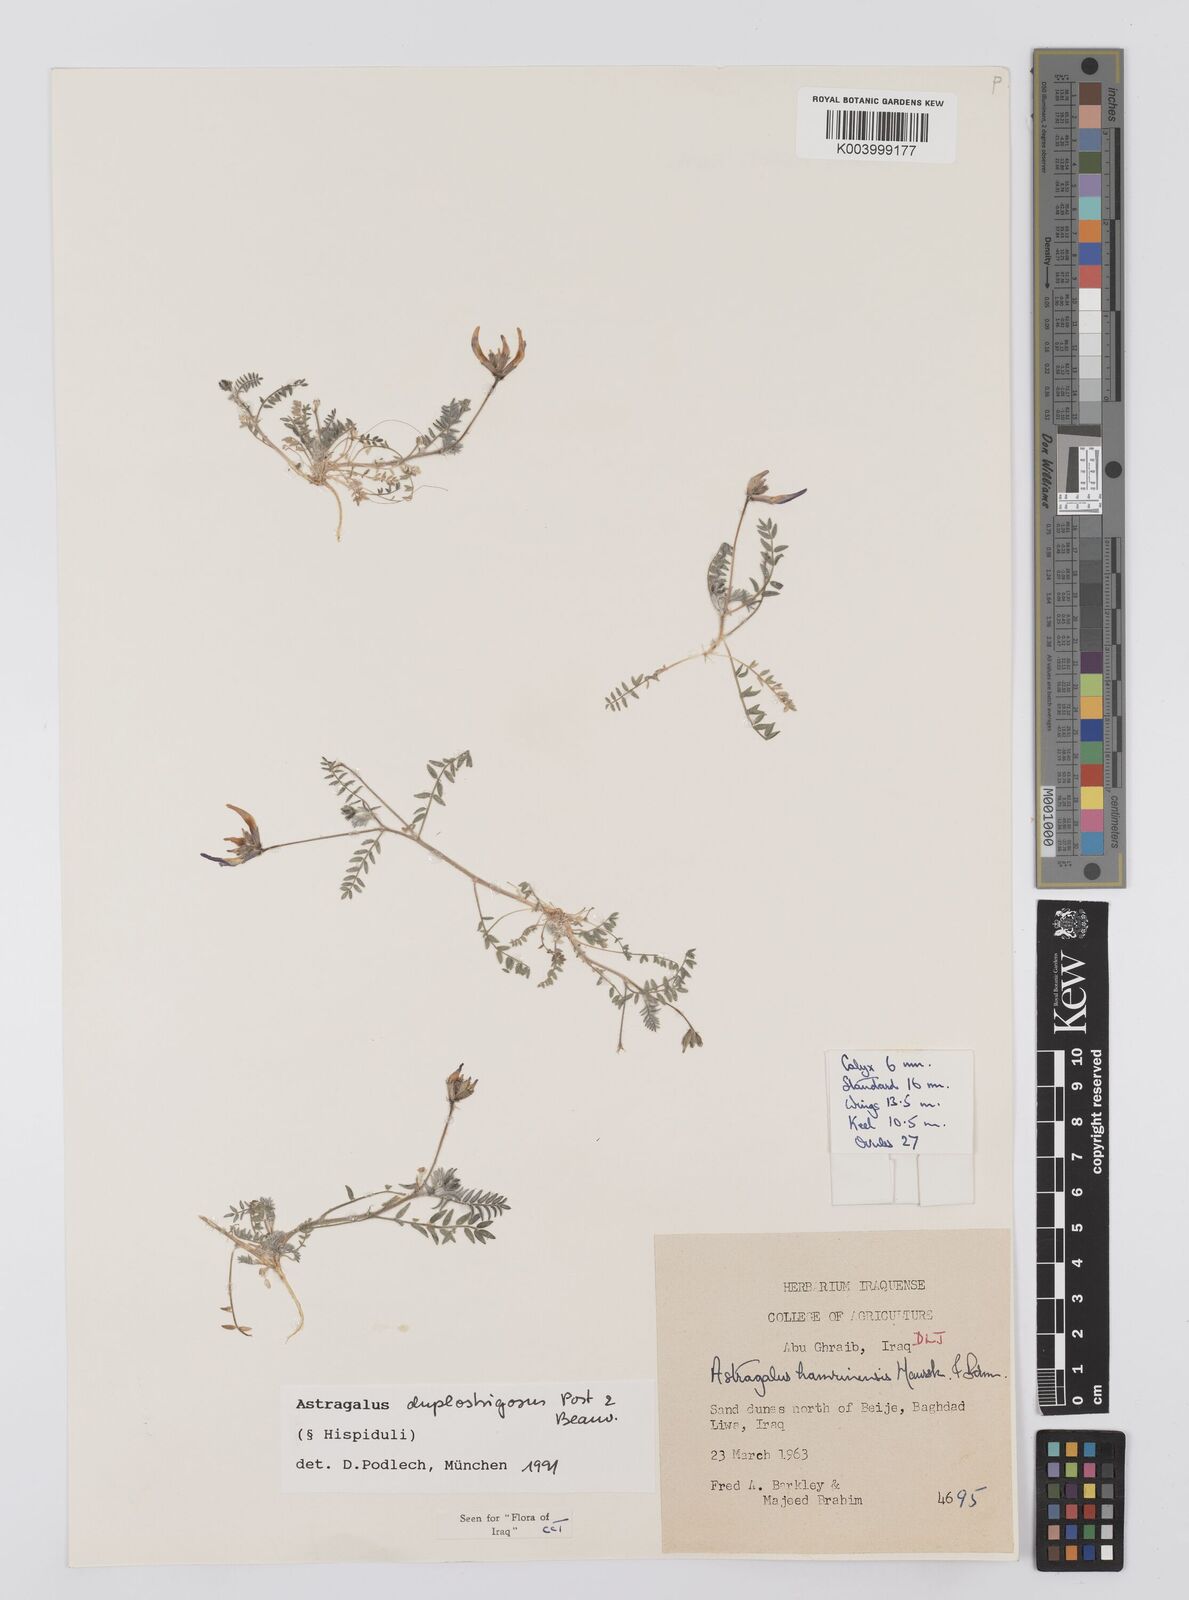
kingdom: Plantae
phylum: Tracheophyta
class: Magnoliopsida
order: Fabales
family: Fabaceae
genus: Astragalus
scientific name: Astragalus duplostrigosus
